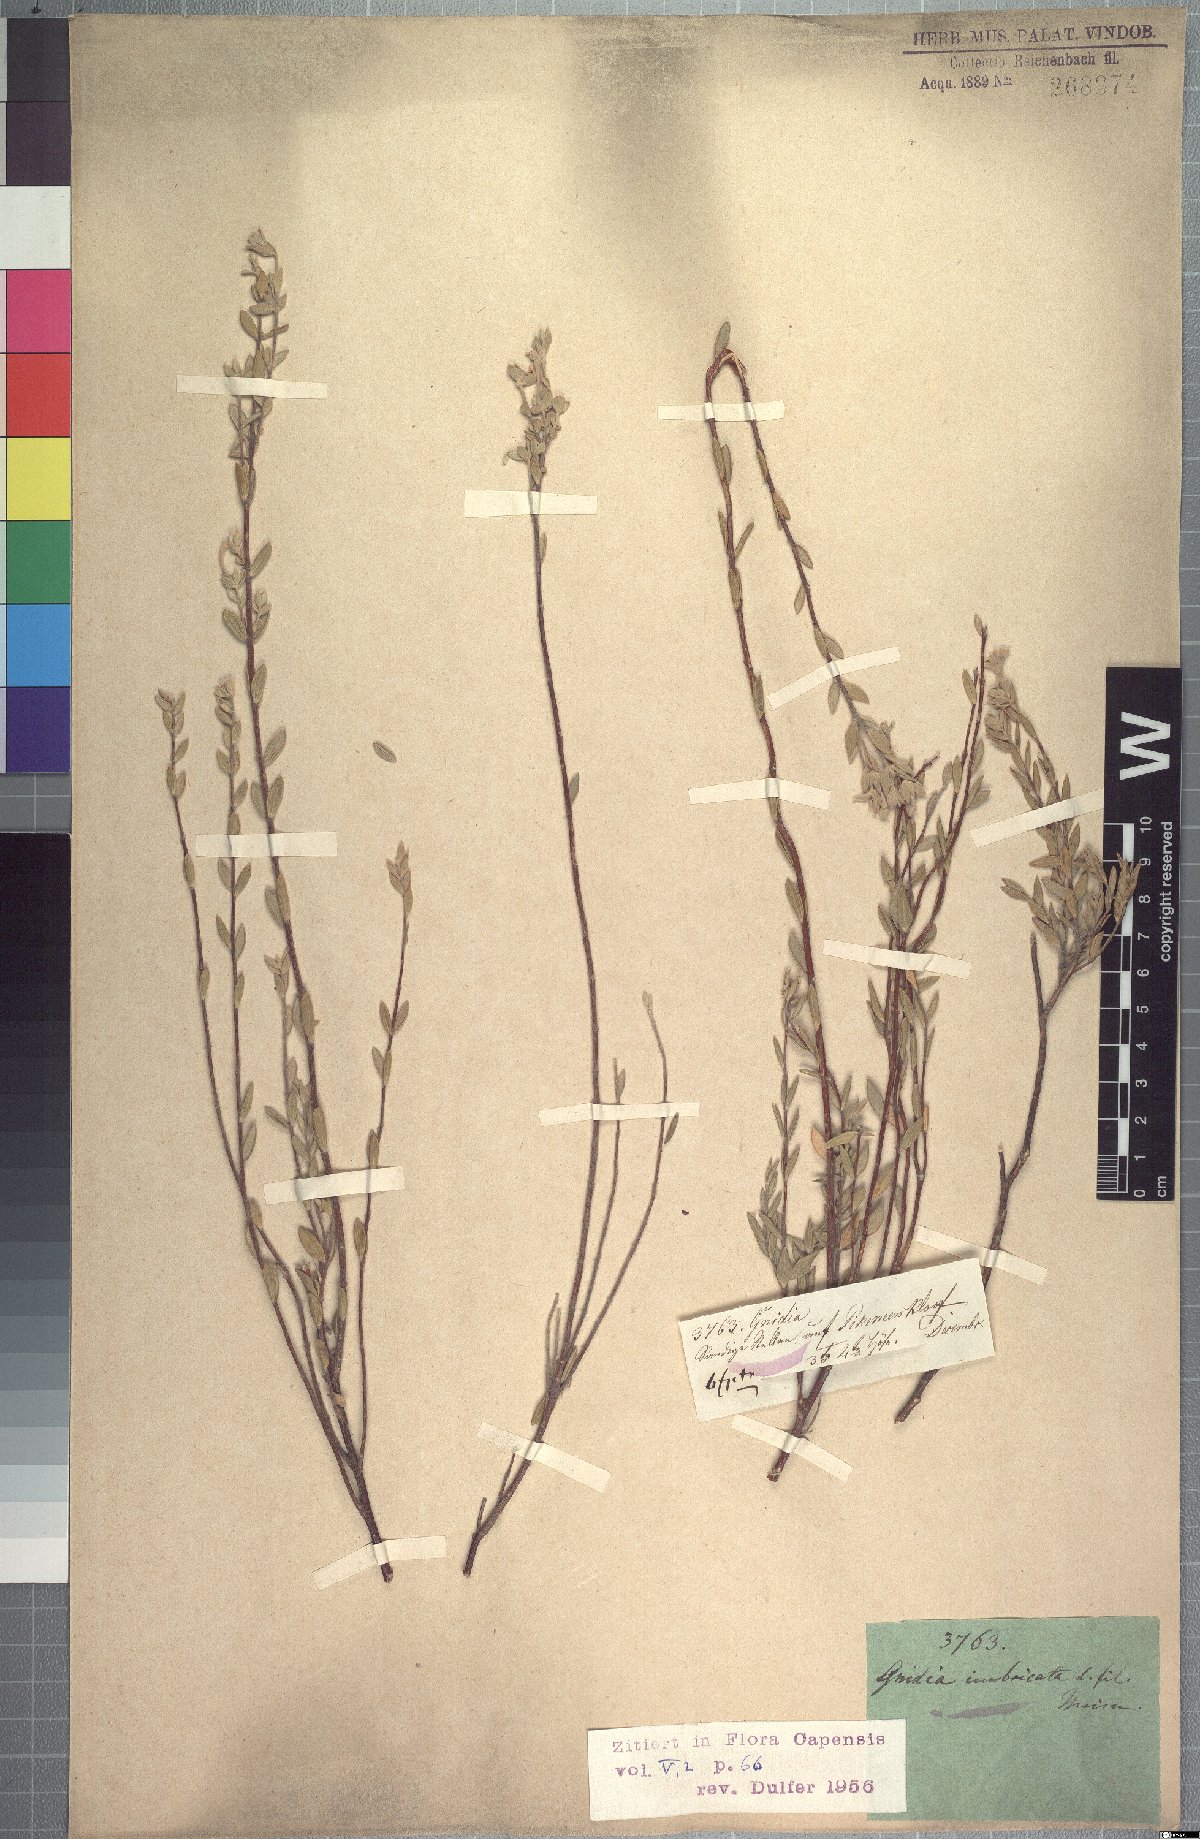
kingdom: Plantae
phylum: Tracheophyta
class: Magnoliopsida
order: Malvales
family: Thymelaeaceae
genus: Gnidia
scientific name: Gnidia imbricata
